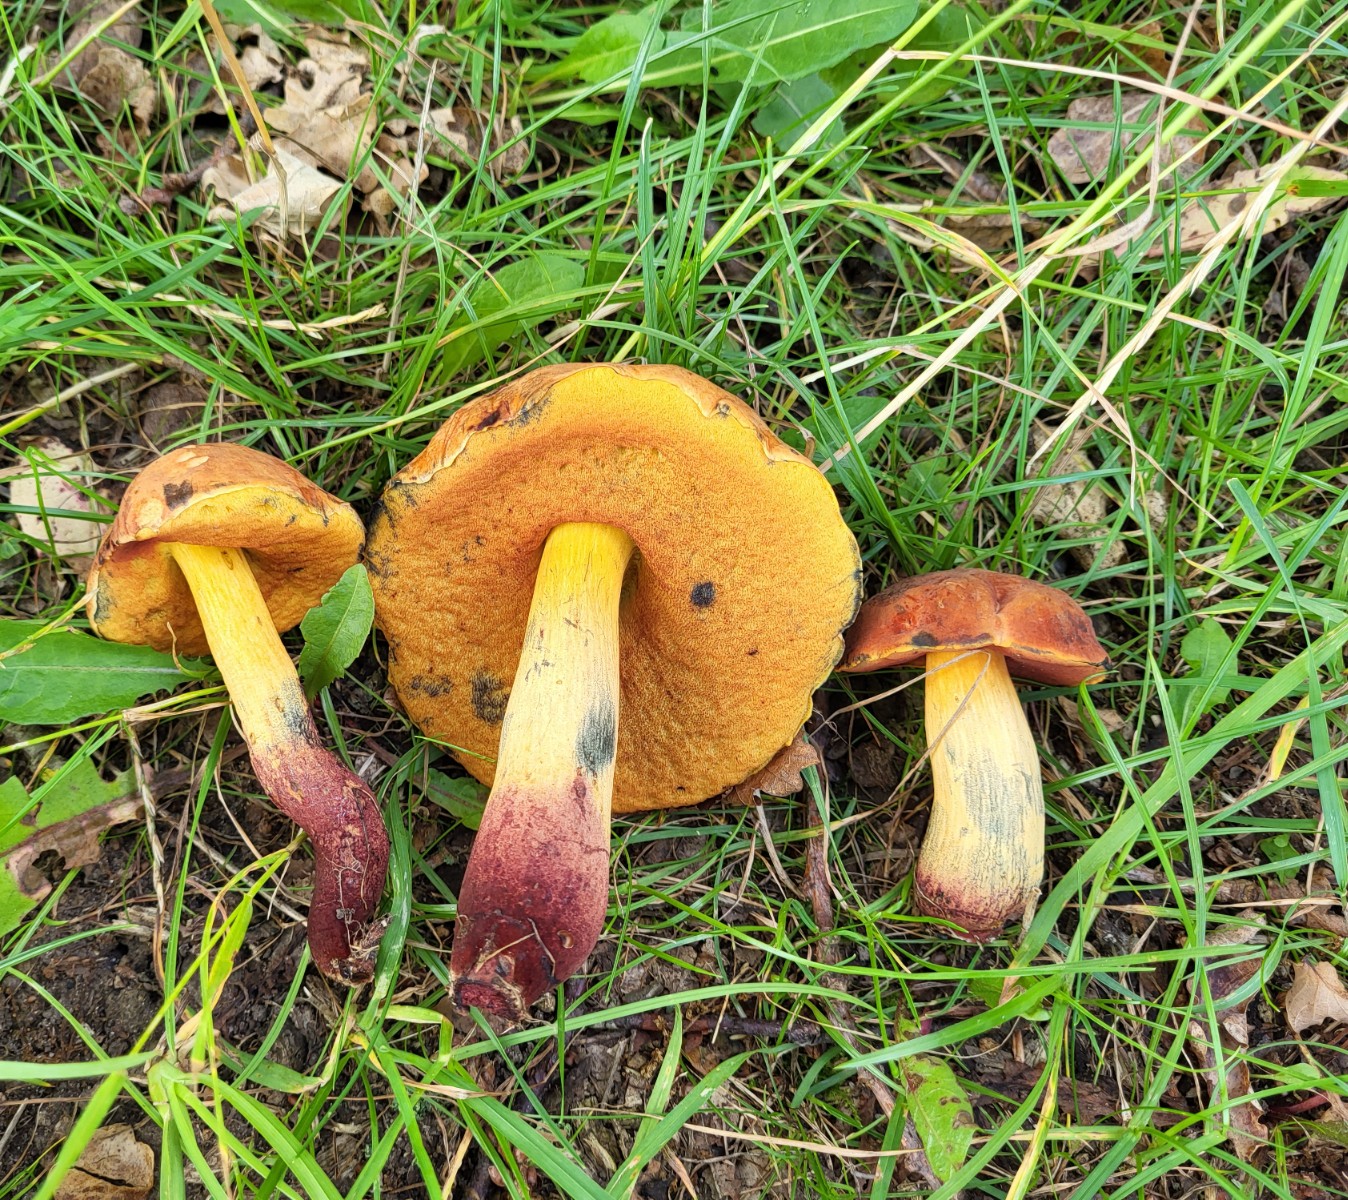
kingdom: Fungi
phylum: Basidiomycota
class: Agaricomycetes
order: Boletales
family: Boletaceae
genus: Suillellus
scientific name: Suillellus queletii
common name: glatstokket indigorørhat
